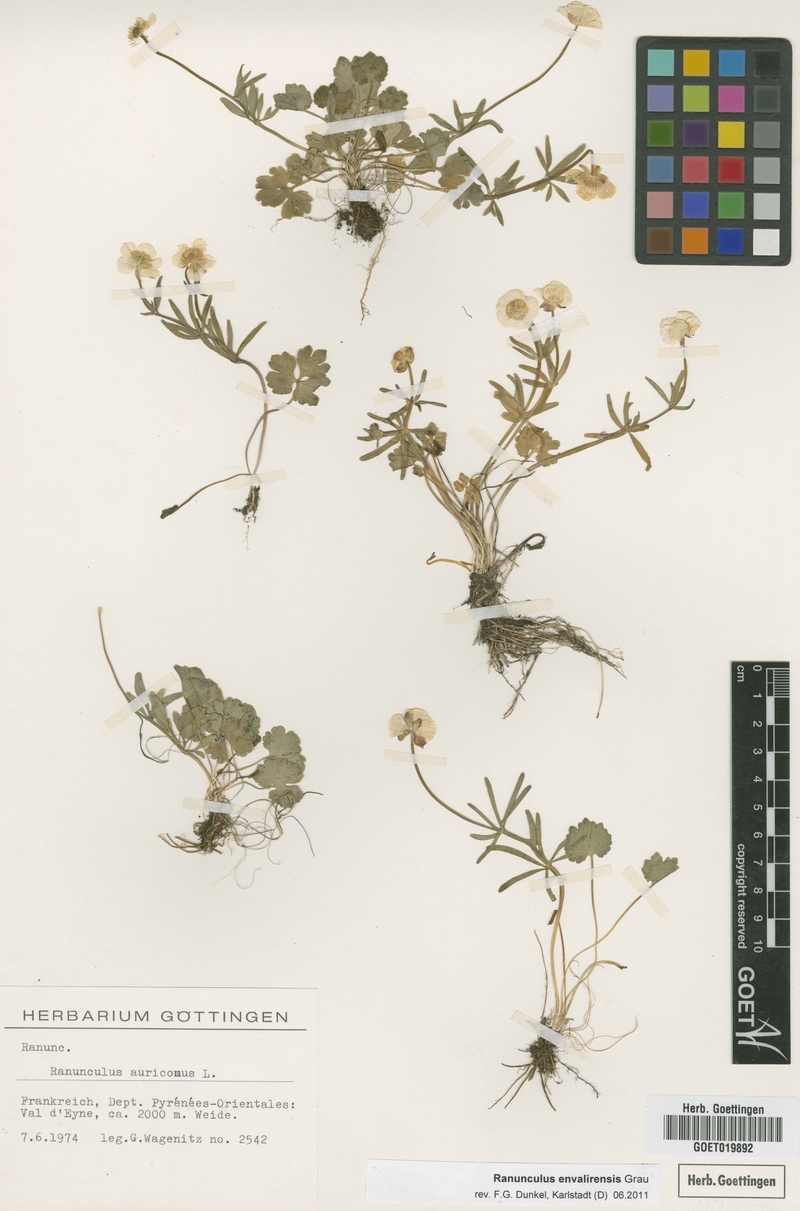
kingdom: Plantae
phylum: Tracheophyta
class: Magnoliopsida
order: Ranunculales
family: Ranunculaceae
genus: Ranunculus
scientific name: Ranunculus envalirensis
